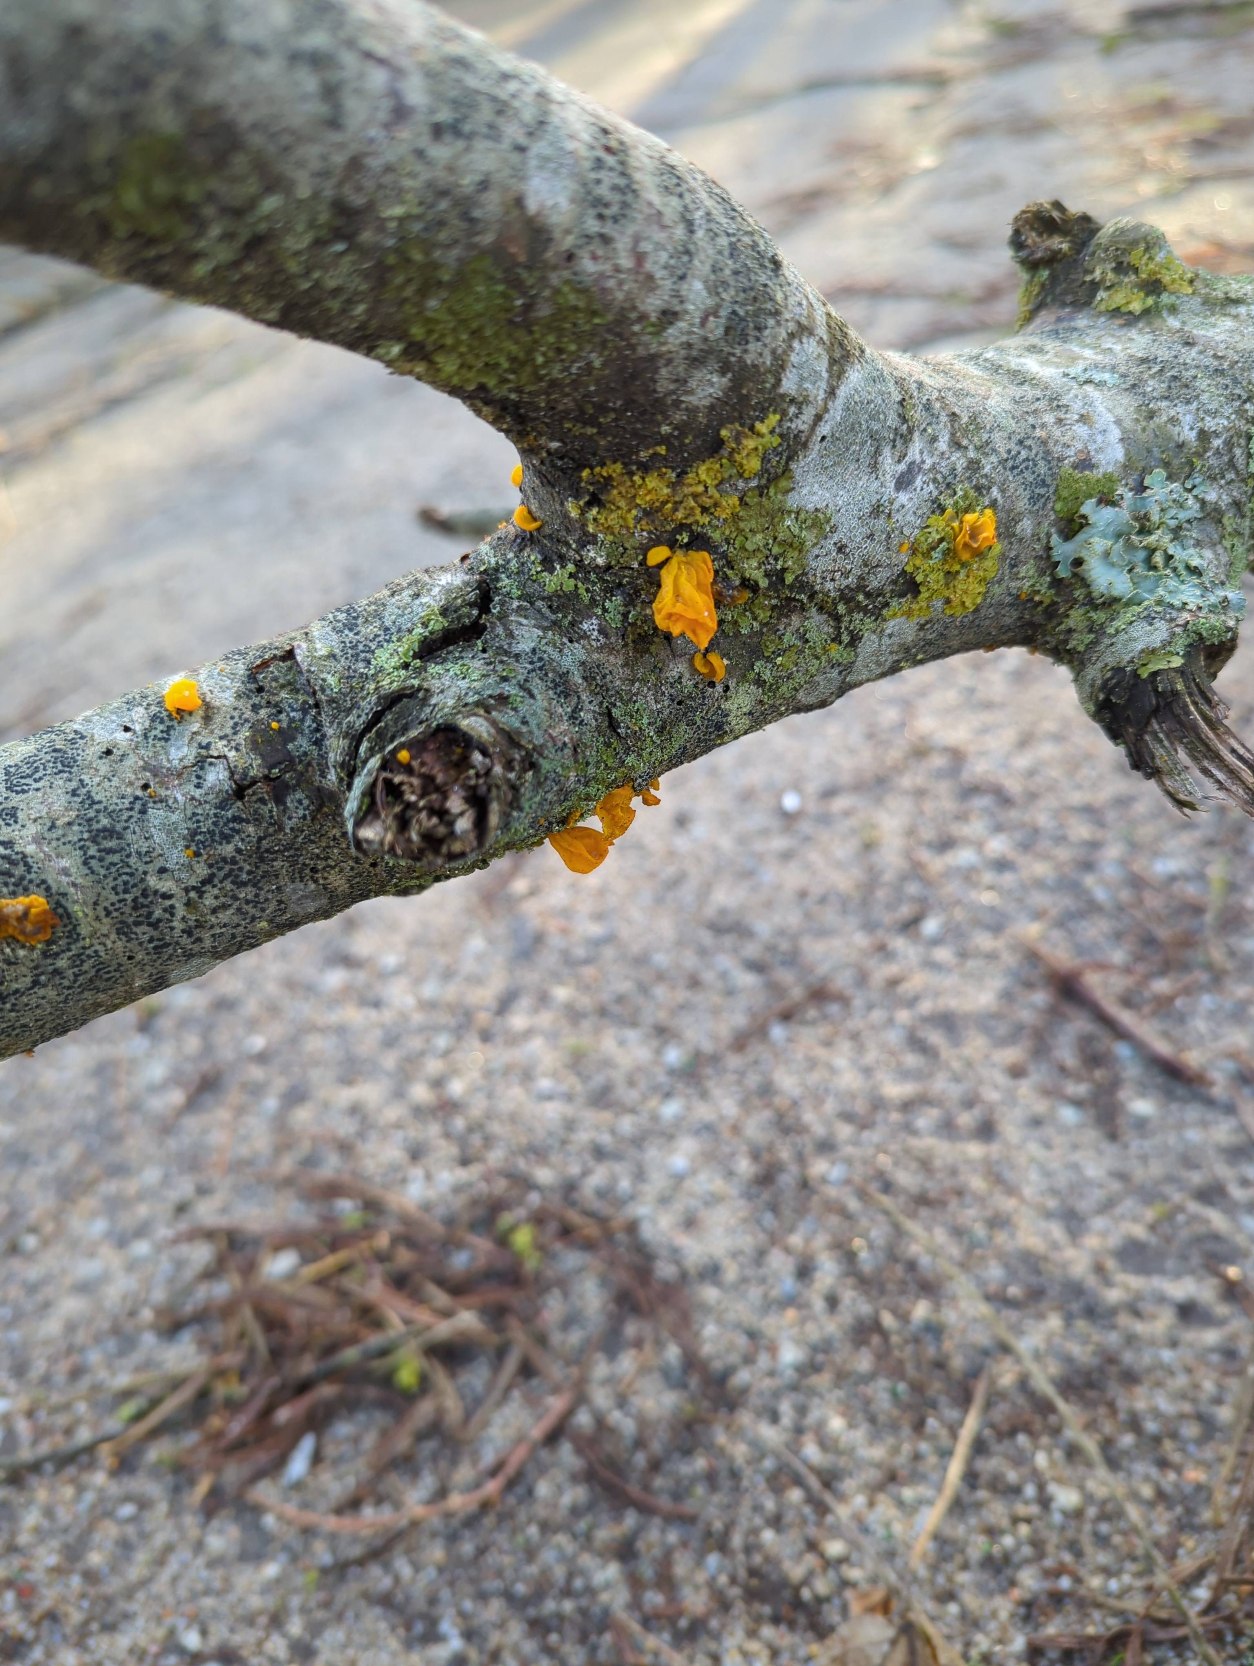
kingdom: Fungi
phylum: Basidiomycota
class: Tremellomycetes
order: Tremellales
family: Tremellaceae
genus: Tremella
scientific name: Tremella mesenterica
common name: Gul bævresvamp
